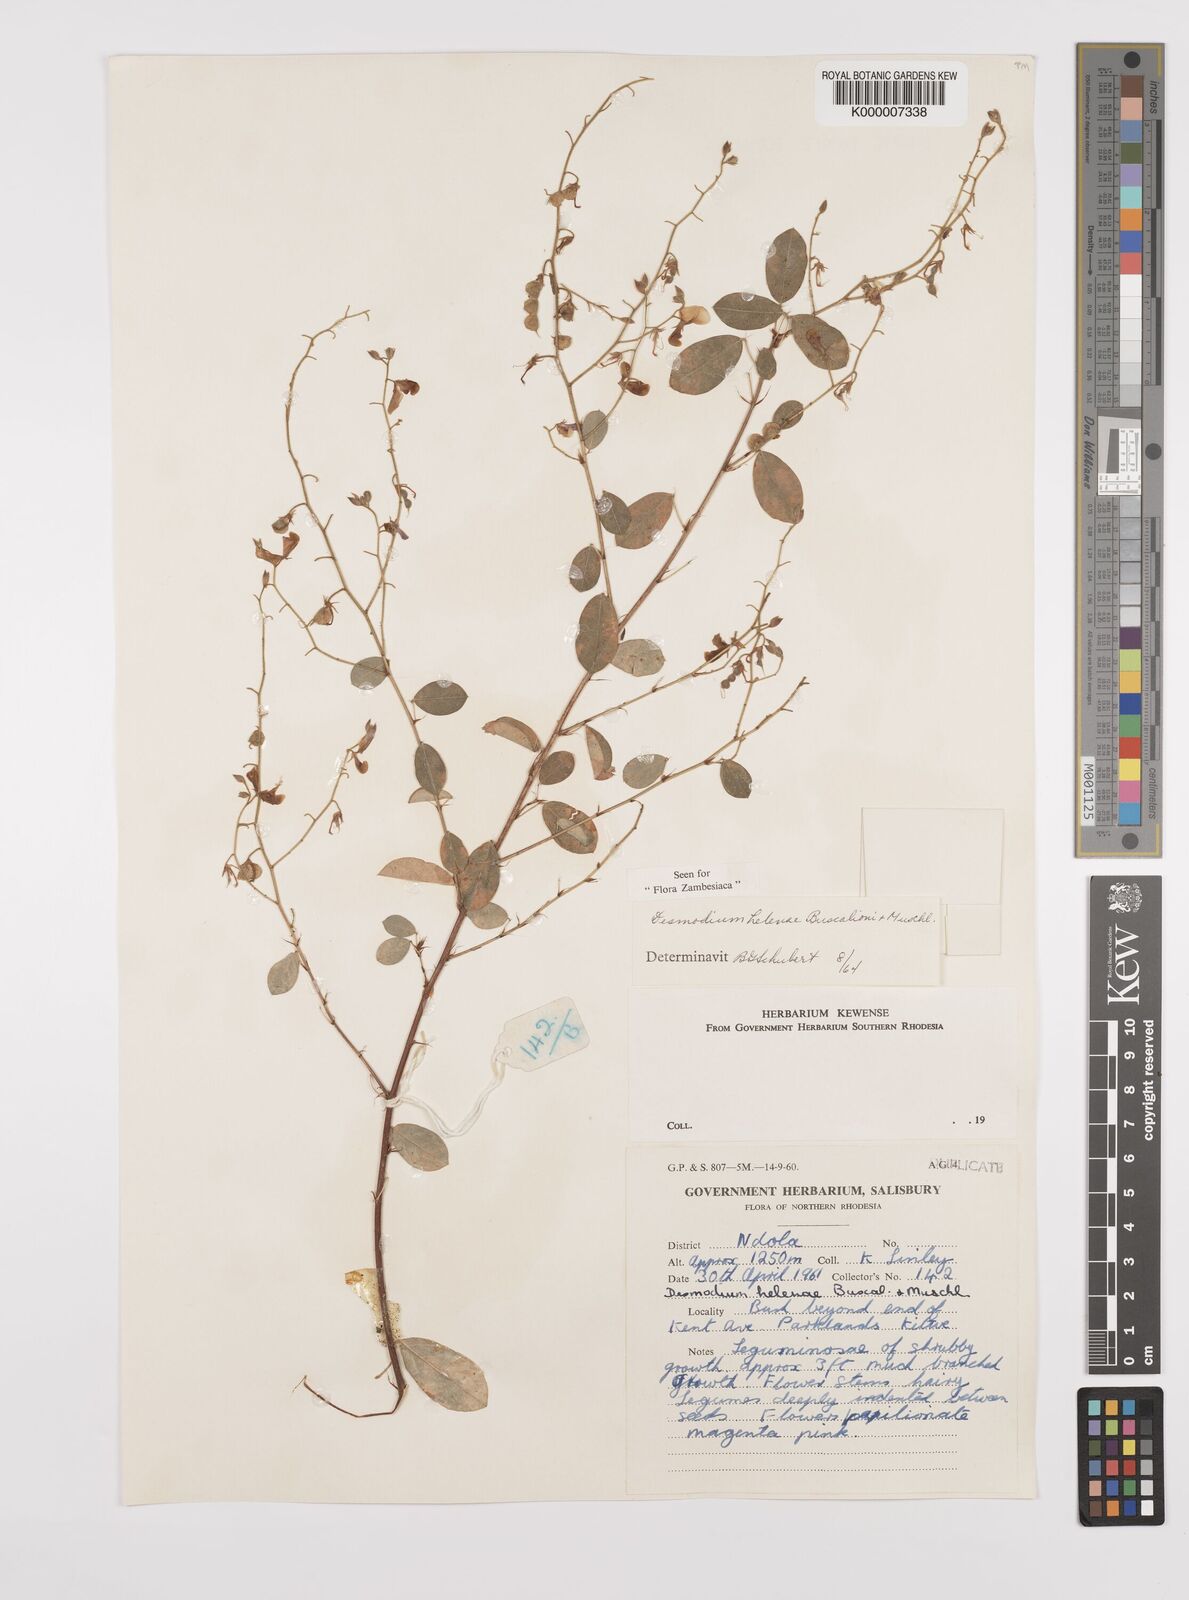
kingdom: Plantae
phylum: Tracheophyta
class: Magnoliopsida
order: Fabales
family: Fabaceae
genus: Grona
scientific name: Grona helenae
